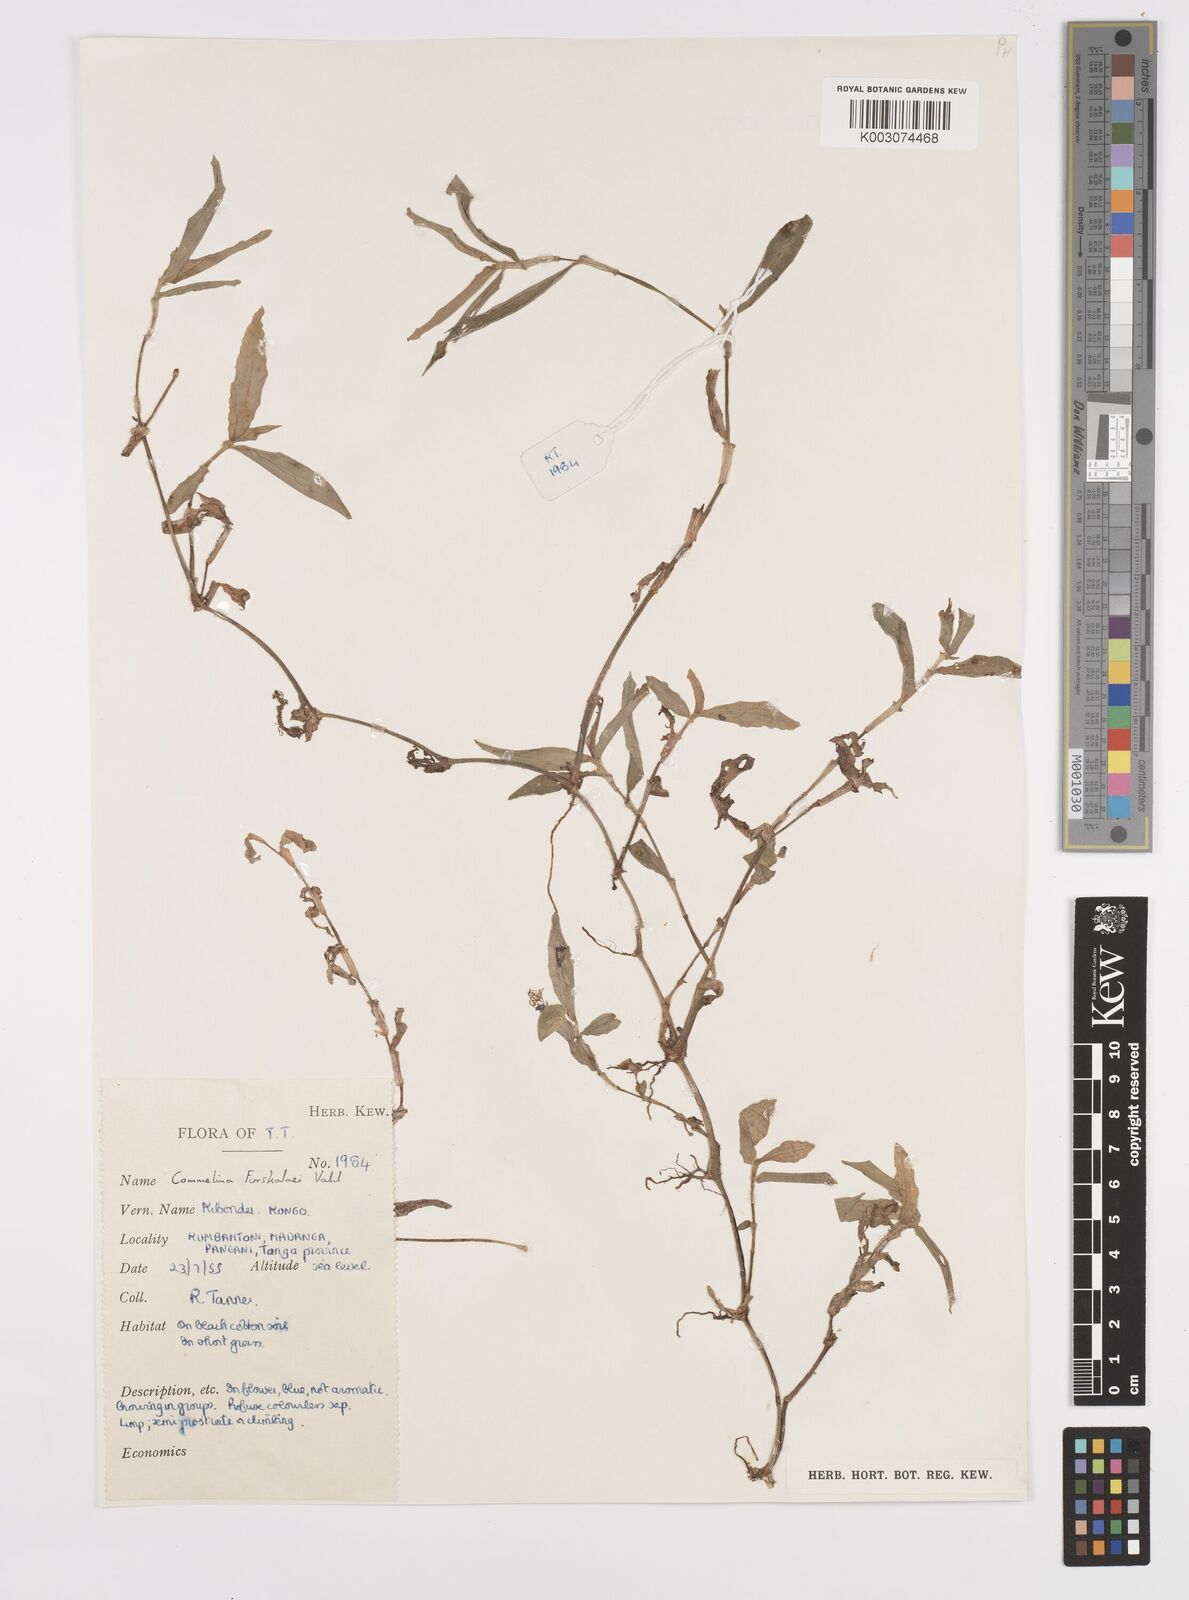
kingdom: Plantae
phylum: Tracheophyta
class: Liliopsida
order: Commelinales
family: Commelinaceae
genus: Commelina
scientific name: Commelina forskaolii
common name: Rat's ear
